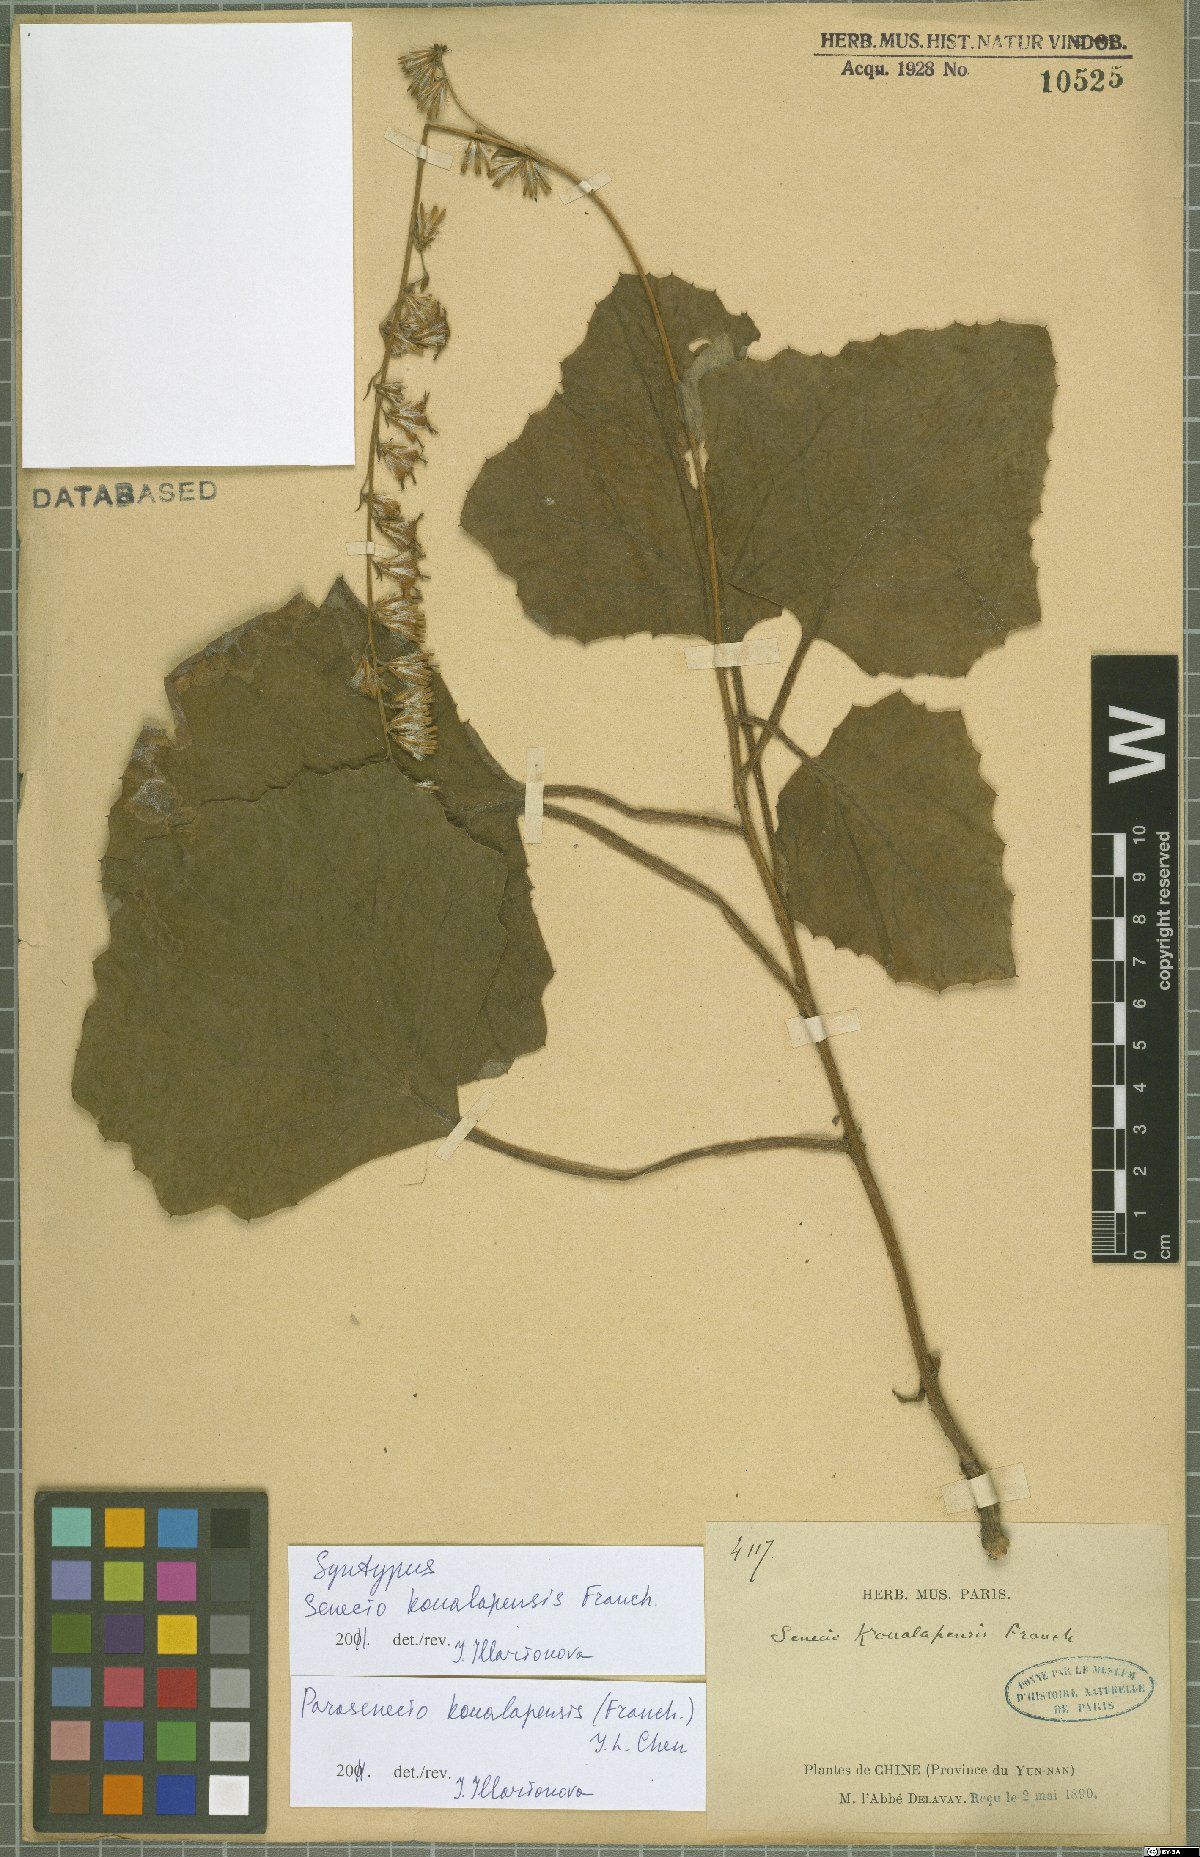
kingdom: Plantae
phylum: Tracheophyta
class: Magnoliopsida
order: Asterales
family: Asteraceae
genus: Parasenecio
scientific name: Parasenecio koualapensis
